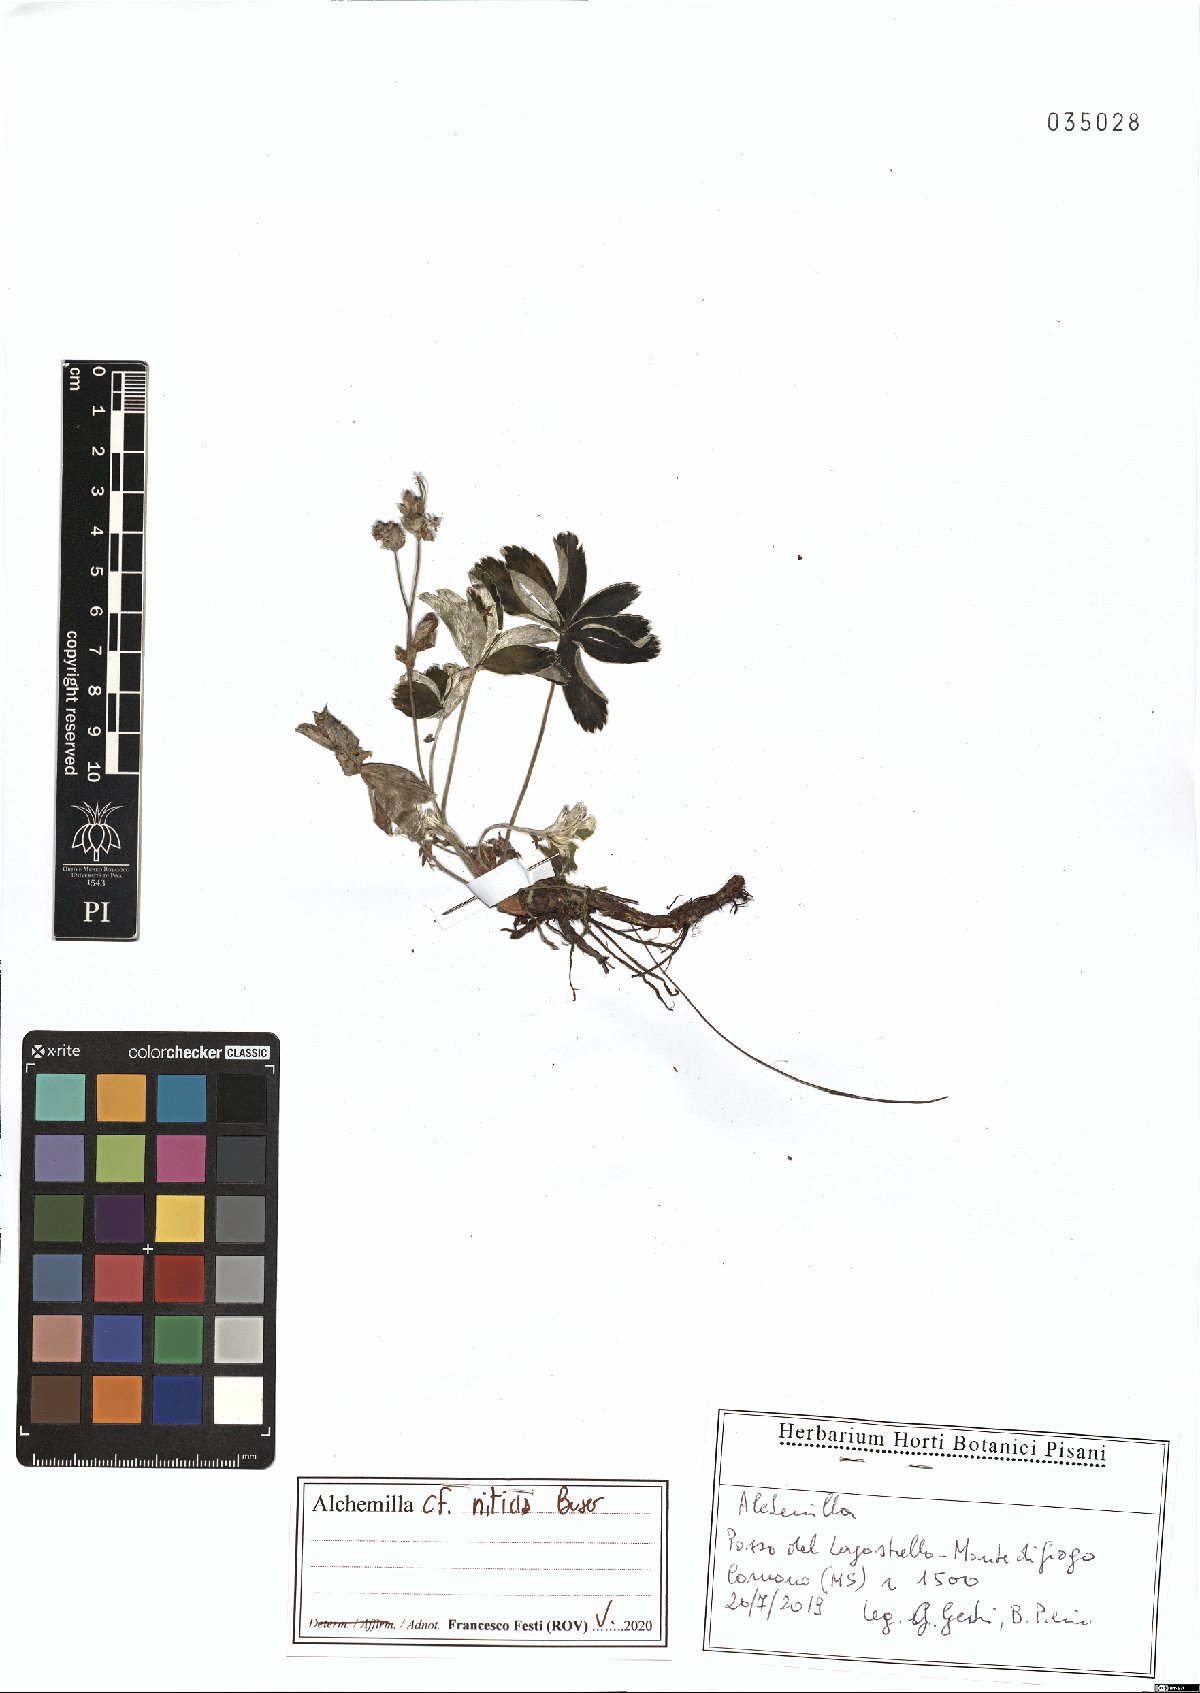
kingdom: Plantae
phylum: Tracheophyta
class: Magnoliopsida
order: Rosales
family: Rosaceae
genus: Alchemilla
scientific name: Alchemilla nitida
